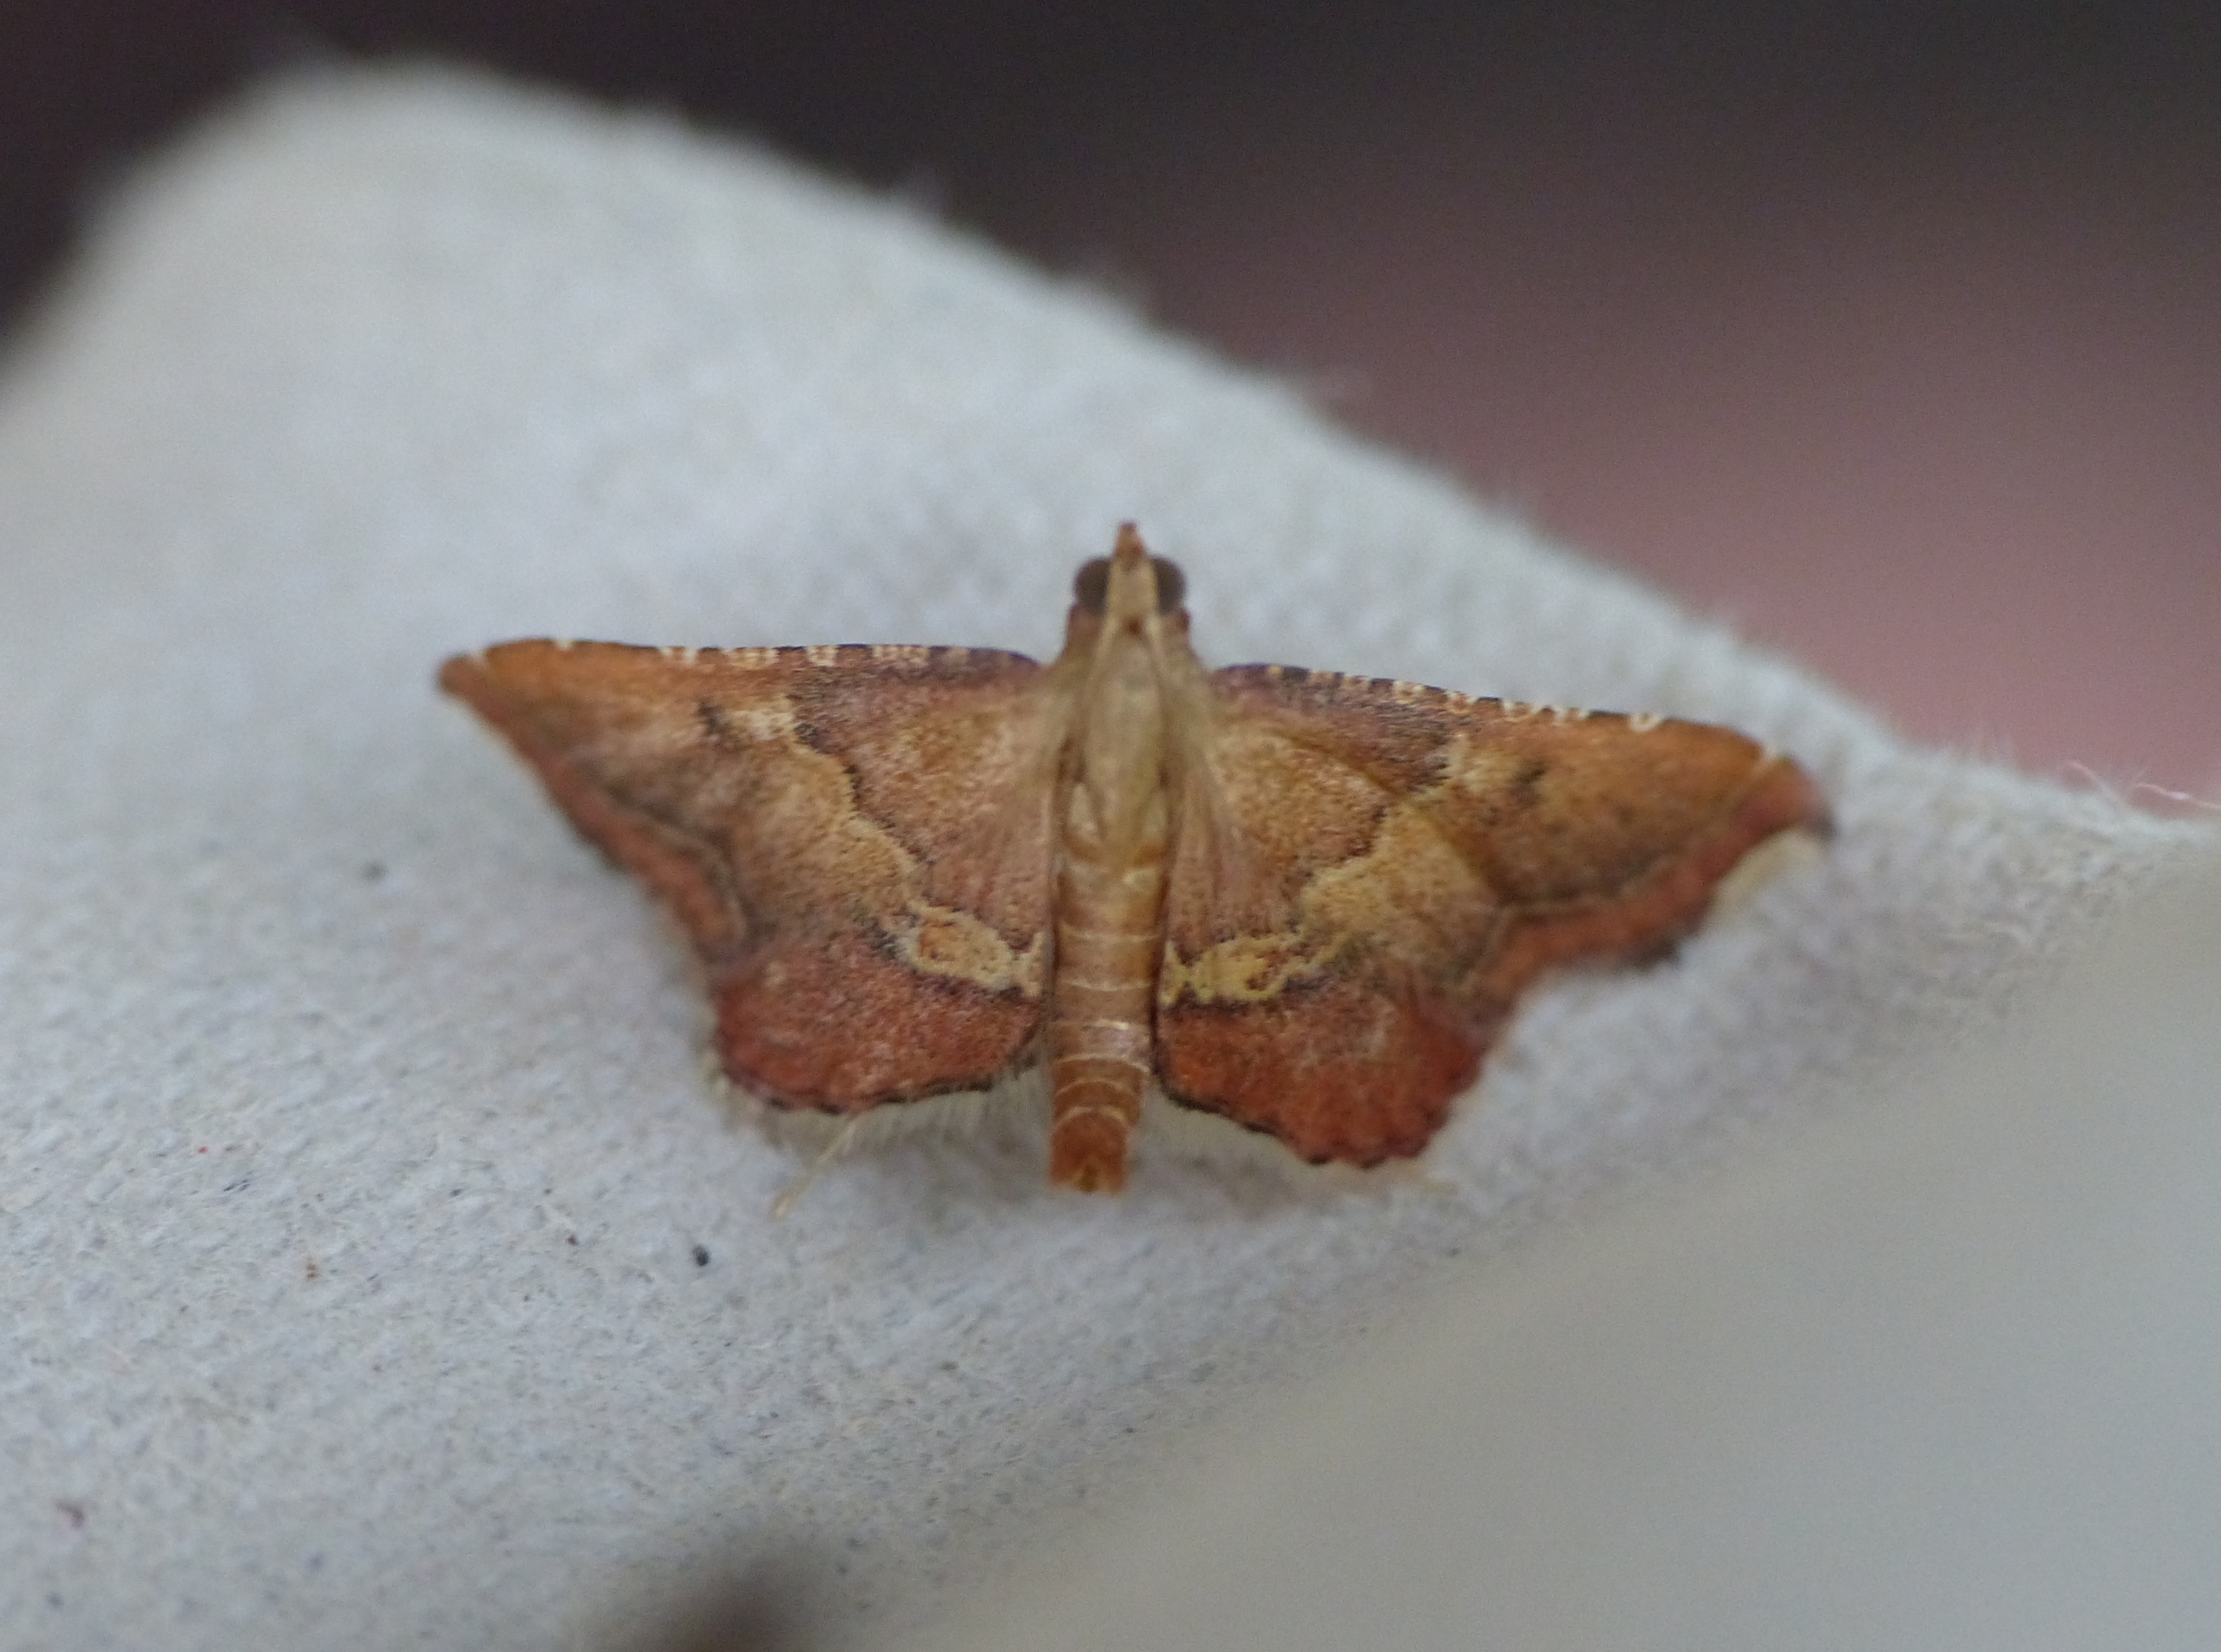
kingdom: Animalia
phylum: Arthropoda
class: Insecta
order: Lepidoptera
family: Pyralidae
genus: Endotricha
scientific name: Endotricha flammealis
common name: Løvkrathalvmøl
